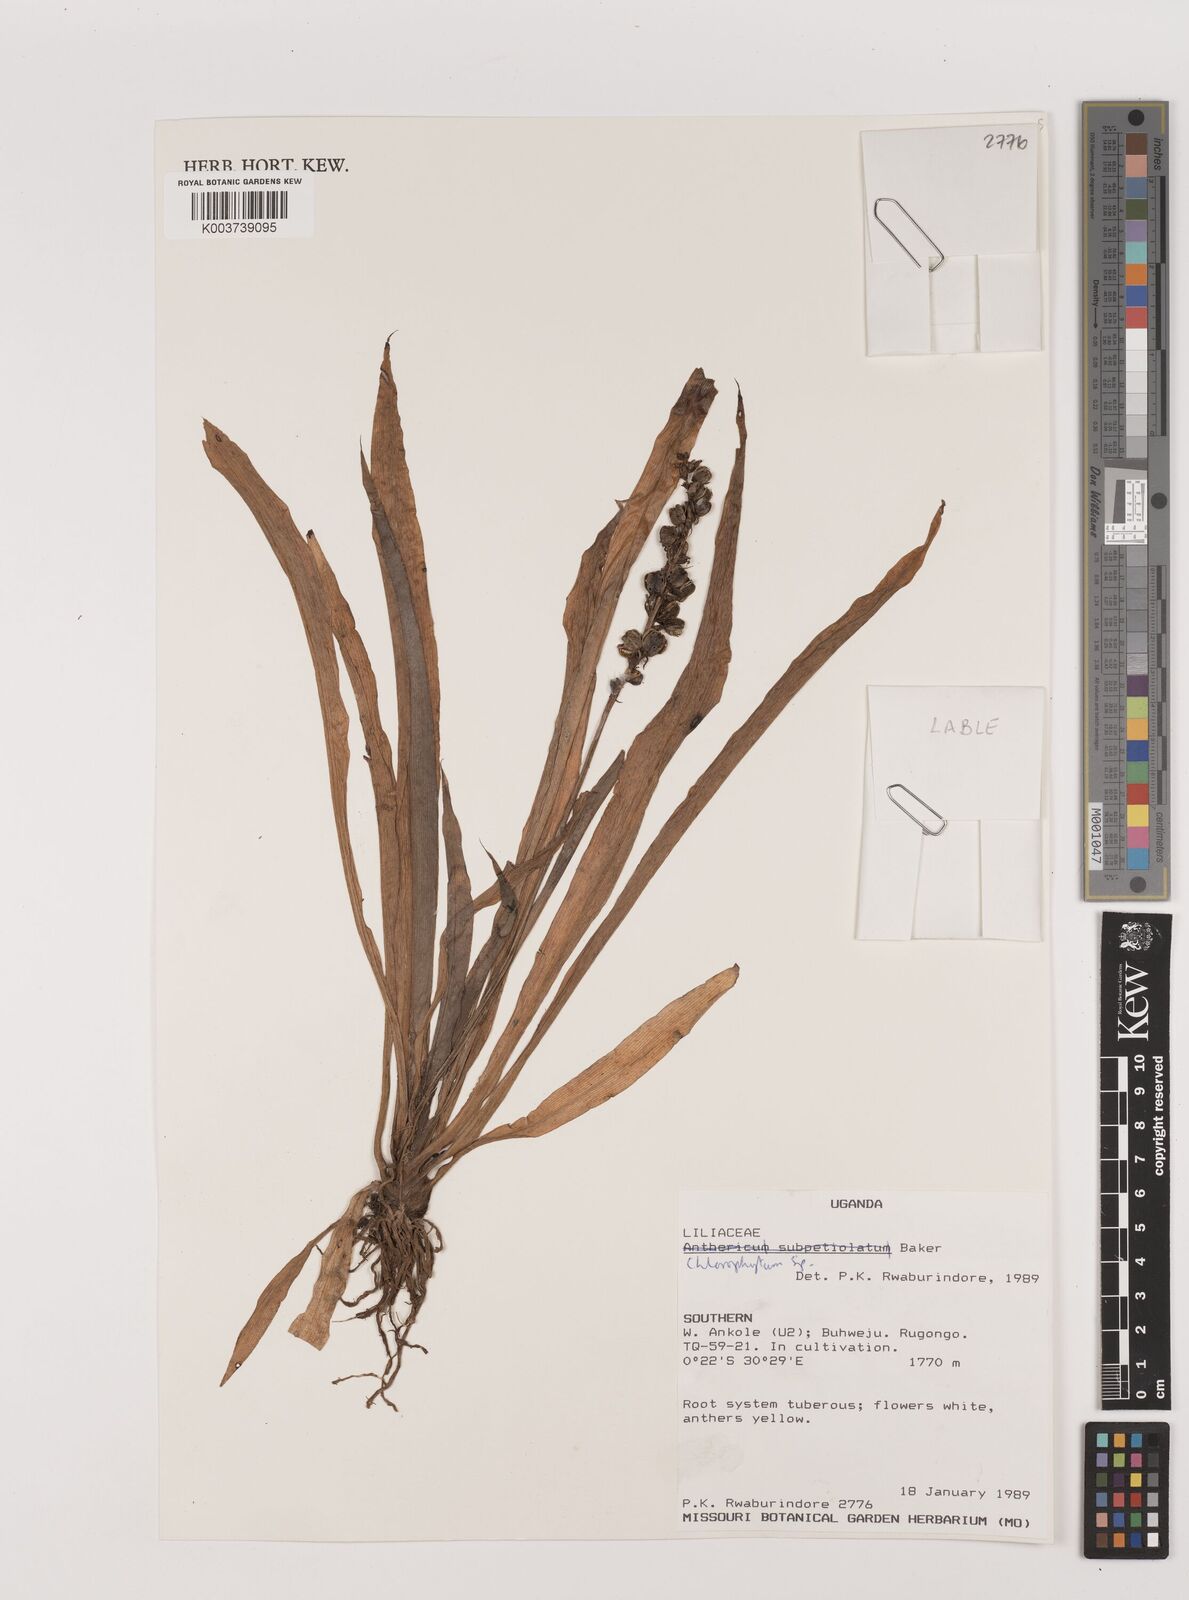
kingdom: Plantae
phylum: Tracheophyta
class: Liliopsida
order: Asparagales
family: Asparagaceae
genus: Chlorophytum
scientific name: Chlorophytum
